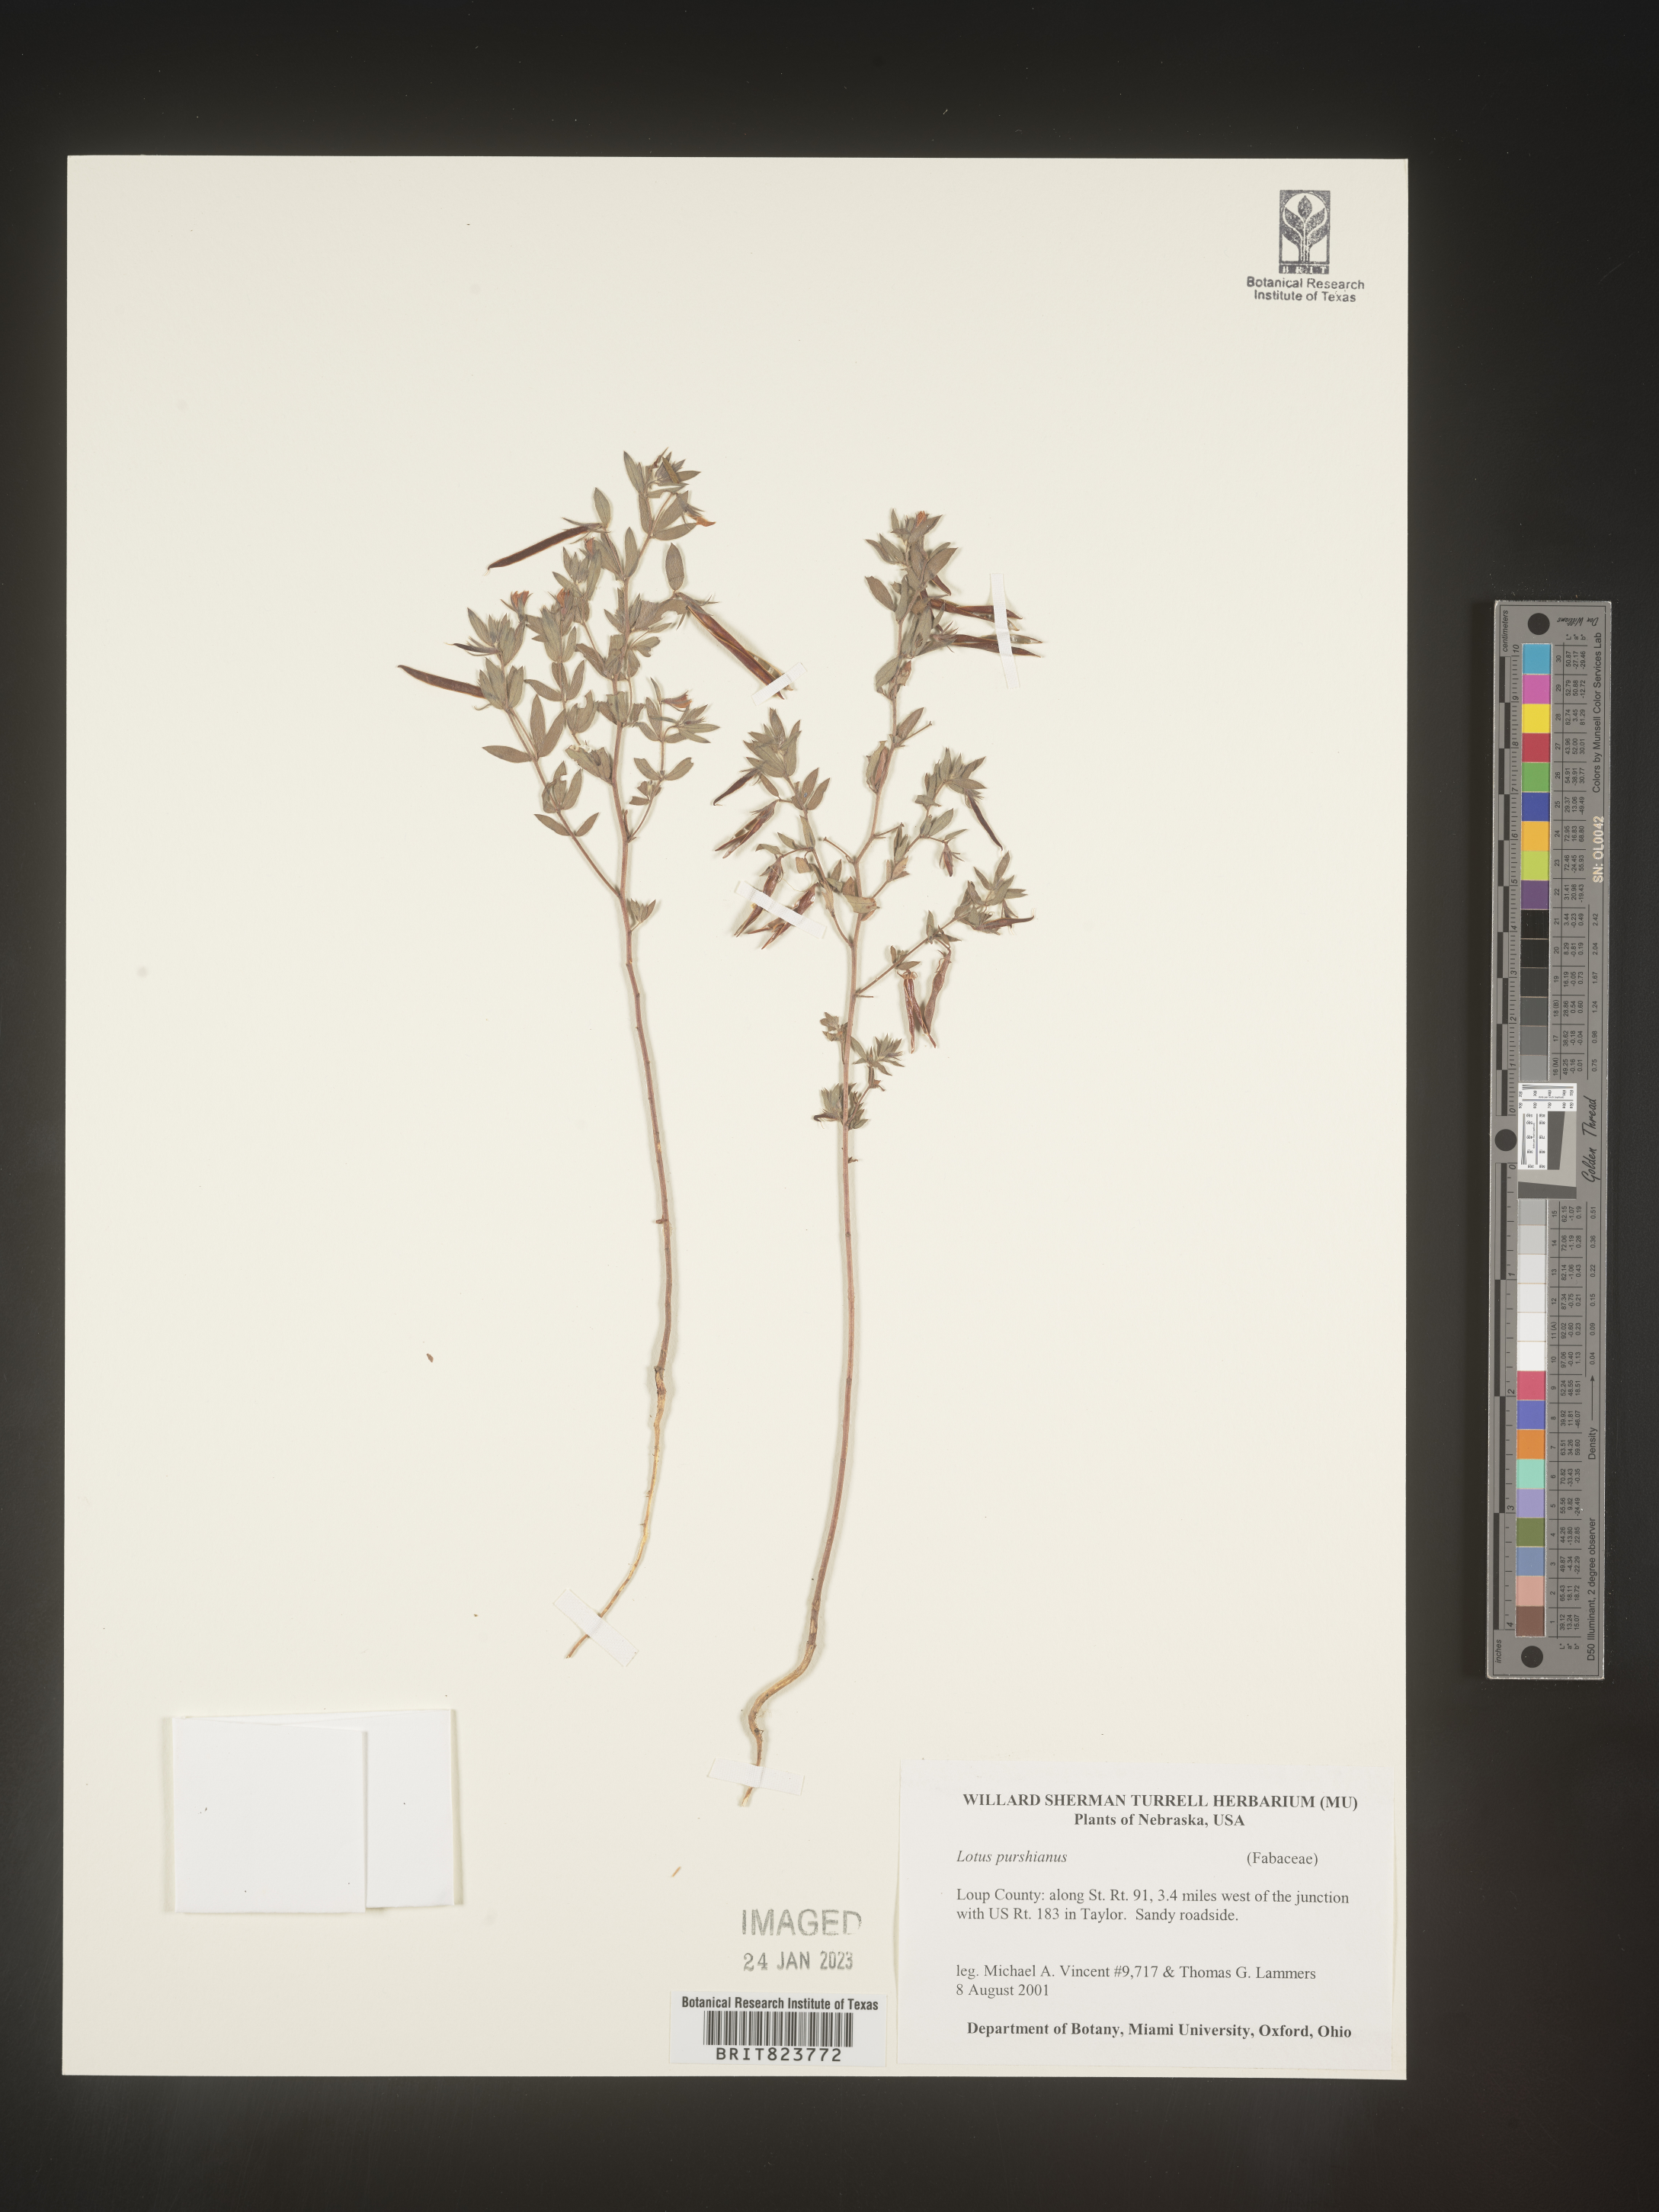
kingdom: Plantae
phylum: Tracheophyta
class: Magnoliopsida
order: Fabales
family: Fabaceae
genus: Acmispon
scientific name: Acmispon americanus
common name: American bird's-foot trefoil
